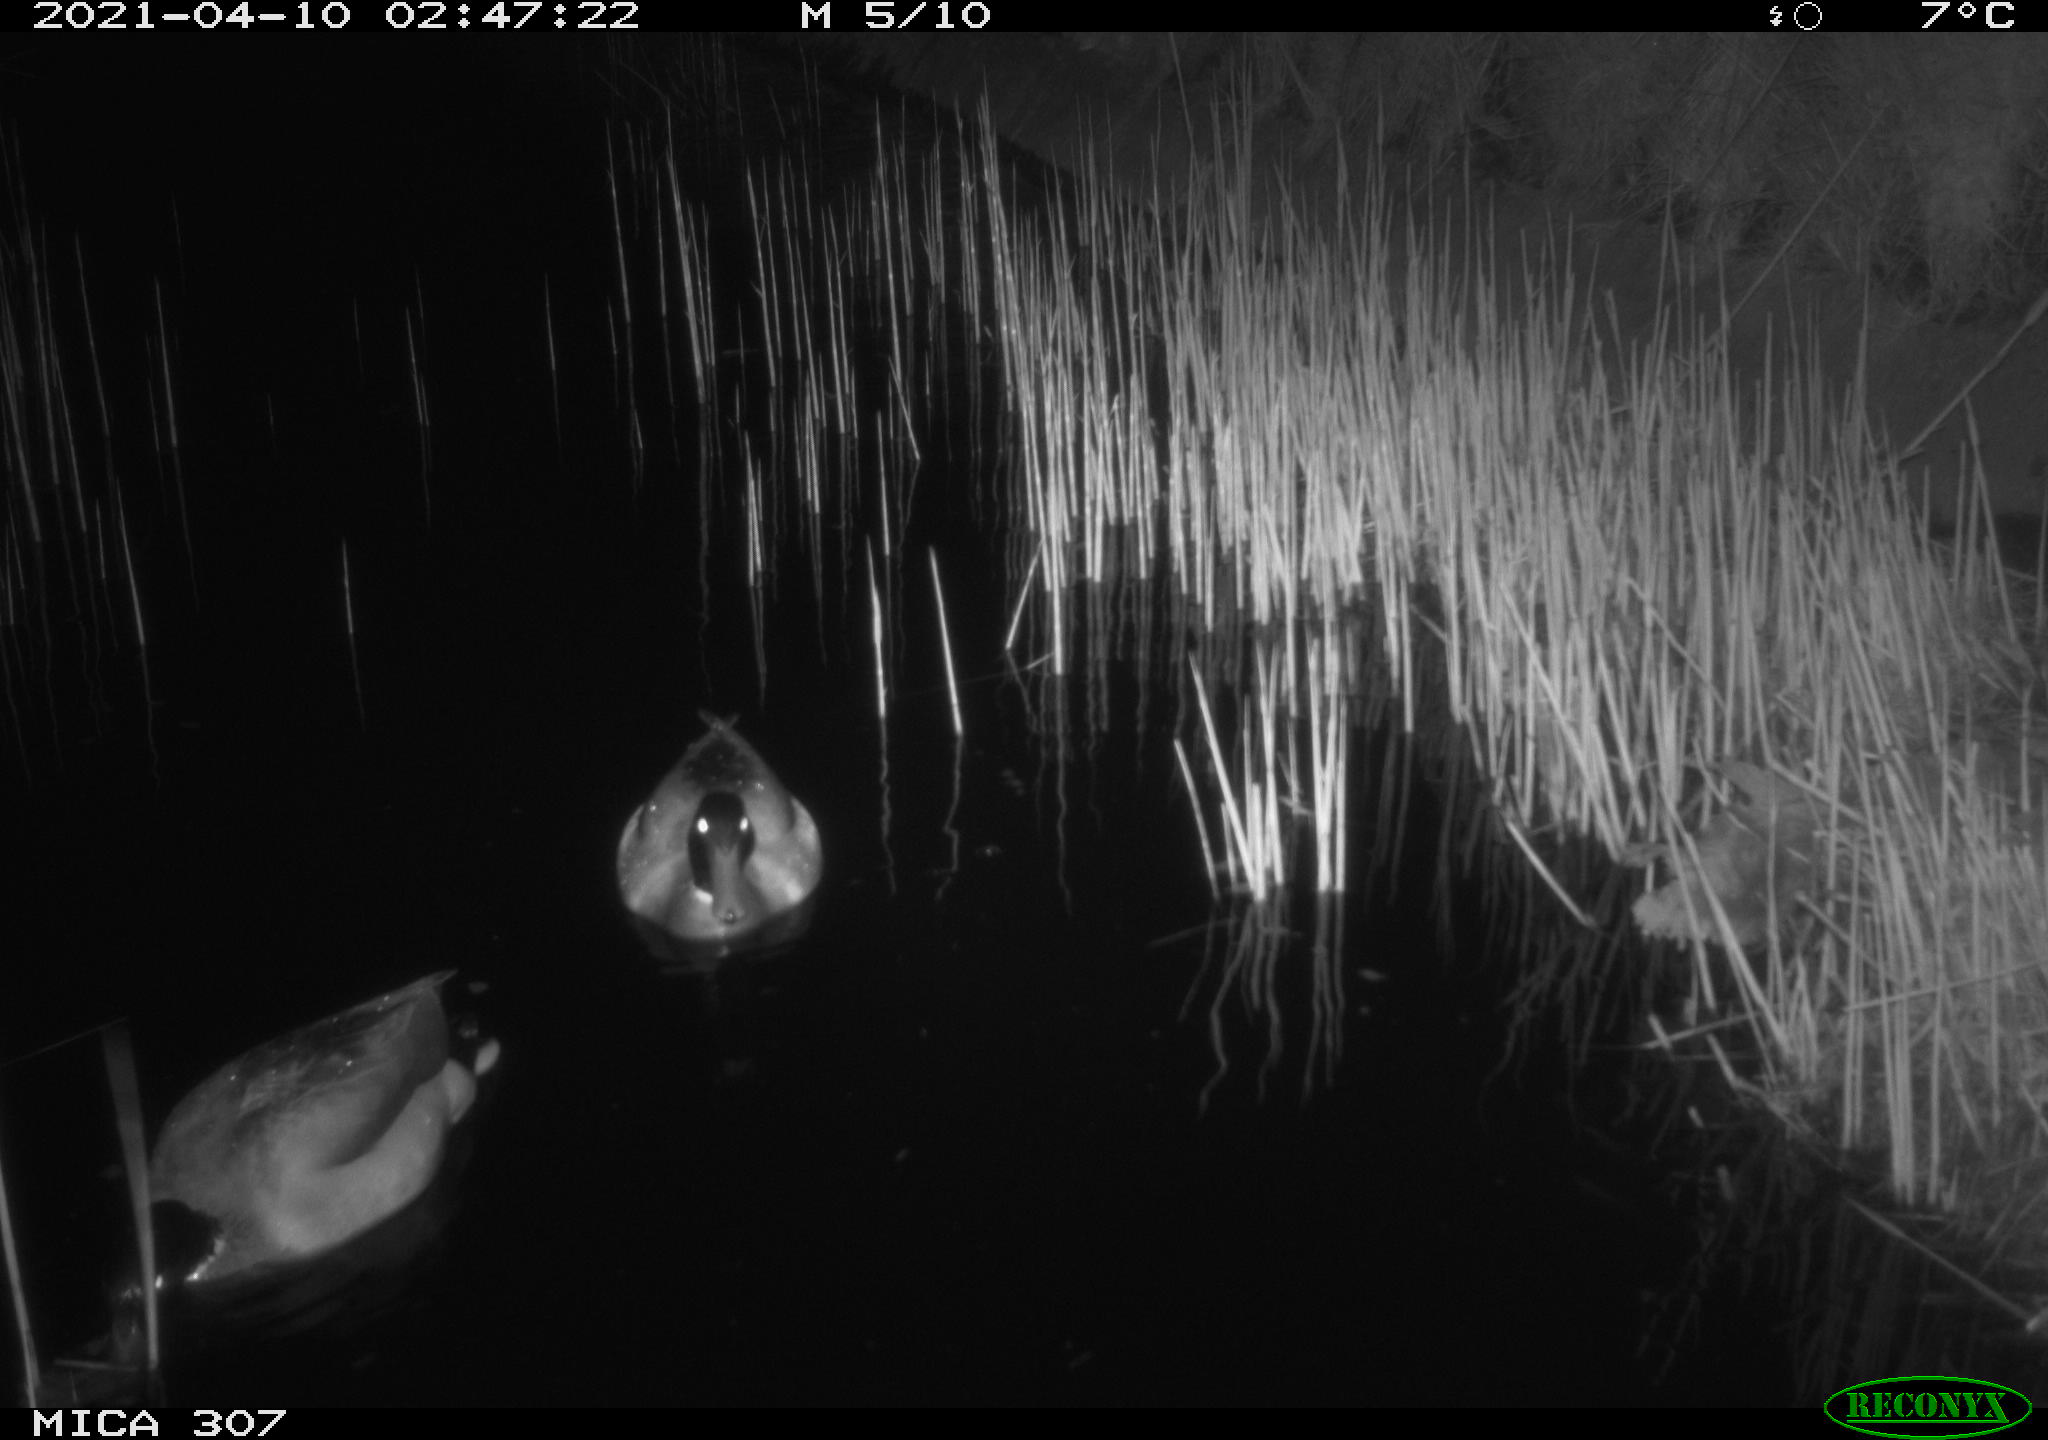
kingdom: Animalia
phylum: Chordata
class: Aves
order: Gruiformes
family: Rallidae
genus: Gallinula
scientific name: Gallinula chloropus
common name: Common moorhen
